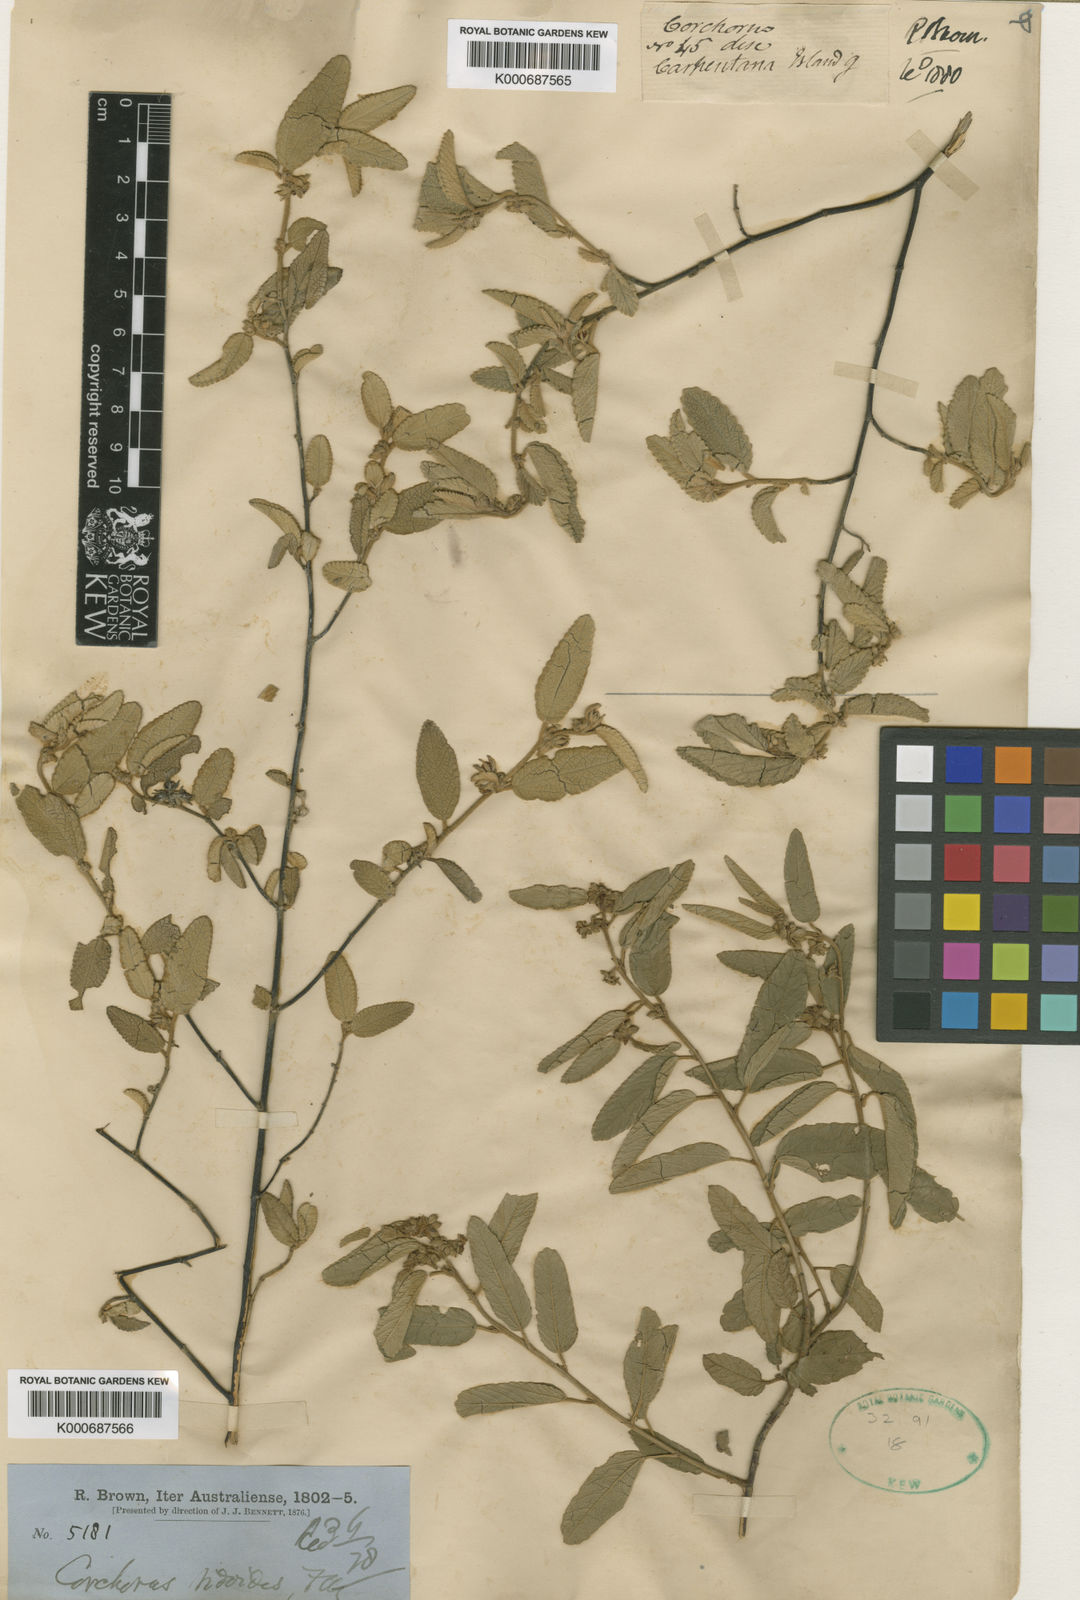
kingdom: Plantae
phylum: Tracheophyta
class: Magnoliopsida
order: Malvales
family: Malvaceae
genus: Corchorus
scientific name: Corchorus sidoides
